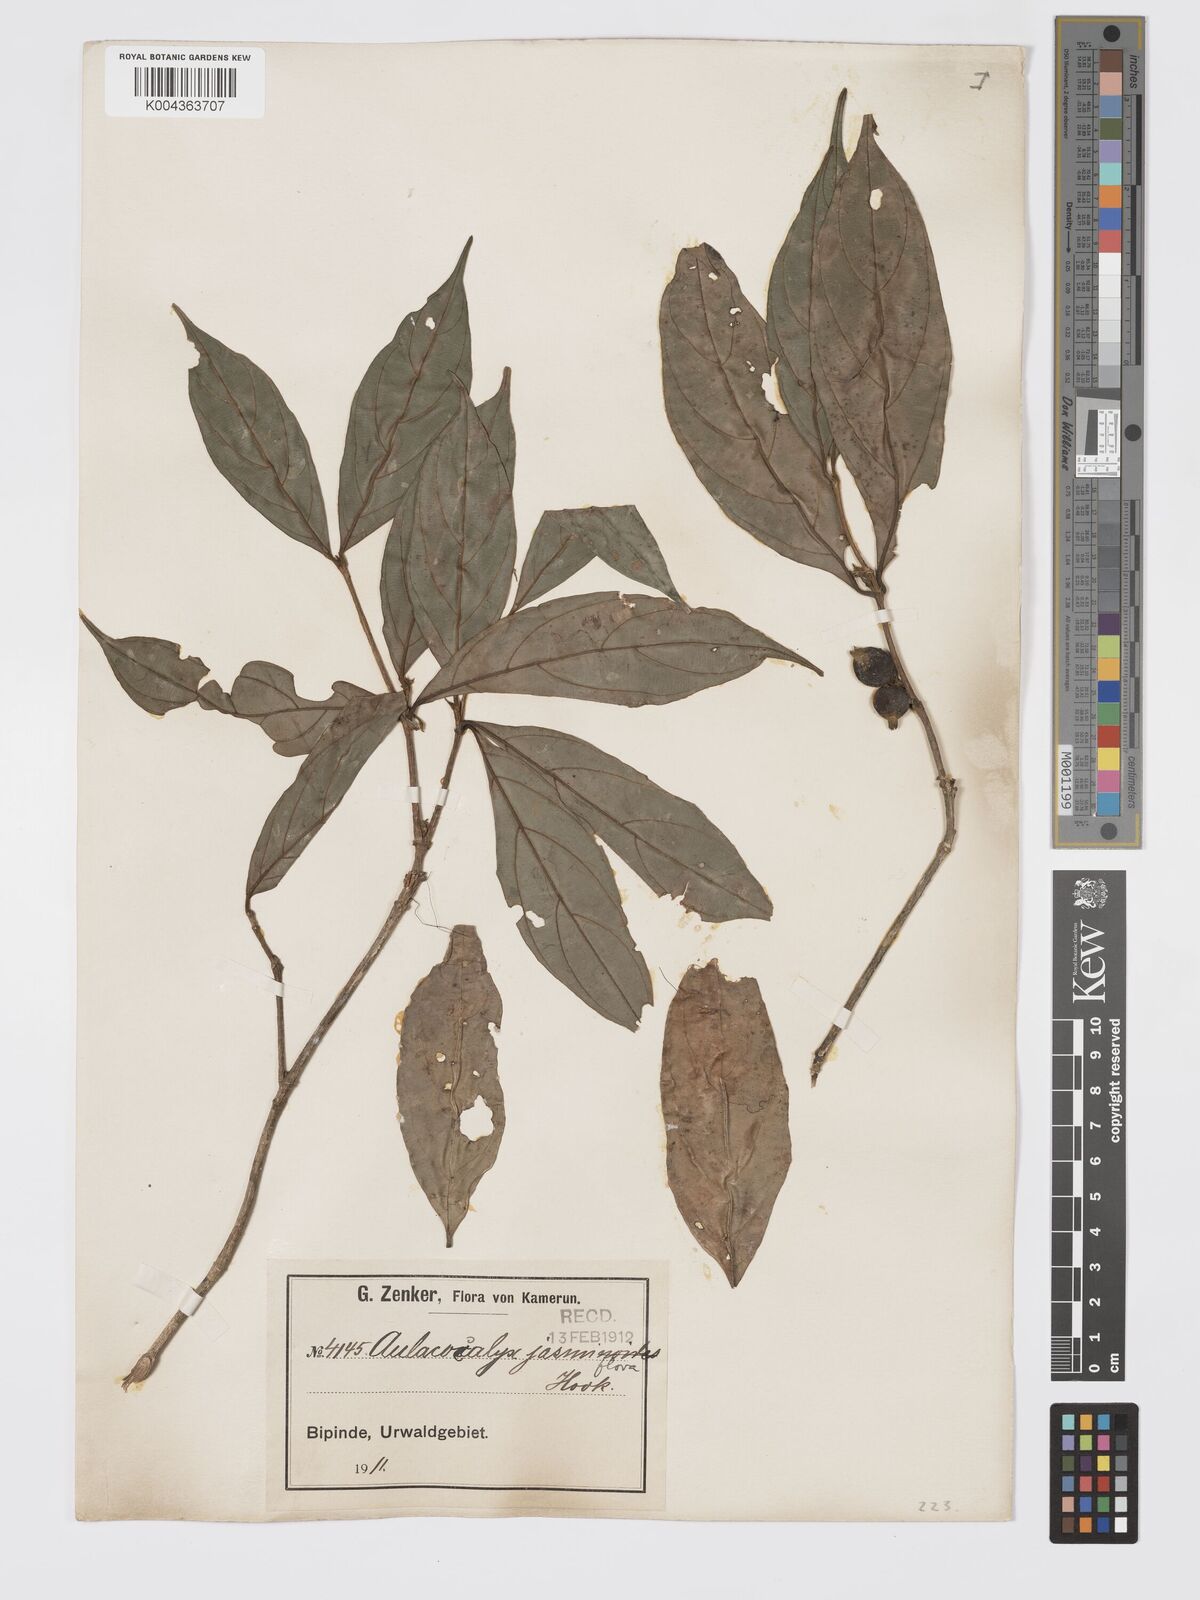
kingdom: Plantae
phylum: Tracheophyta
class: Magnoliopsida
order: Gentianales
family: Rubiaceae
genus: Aulacocalyx
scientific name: Aulacocalyx jasminiflora
